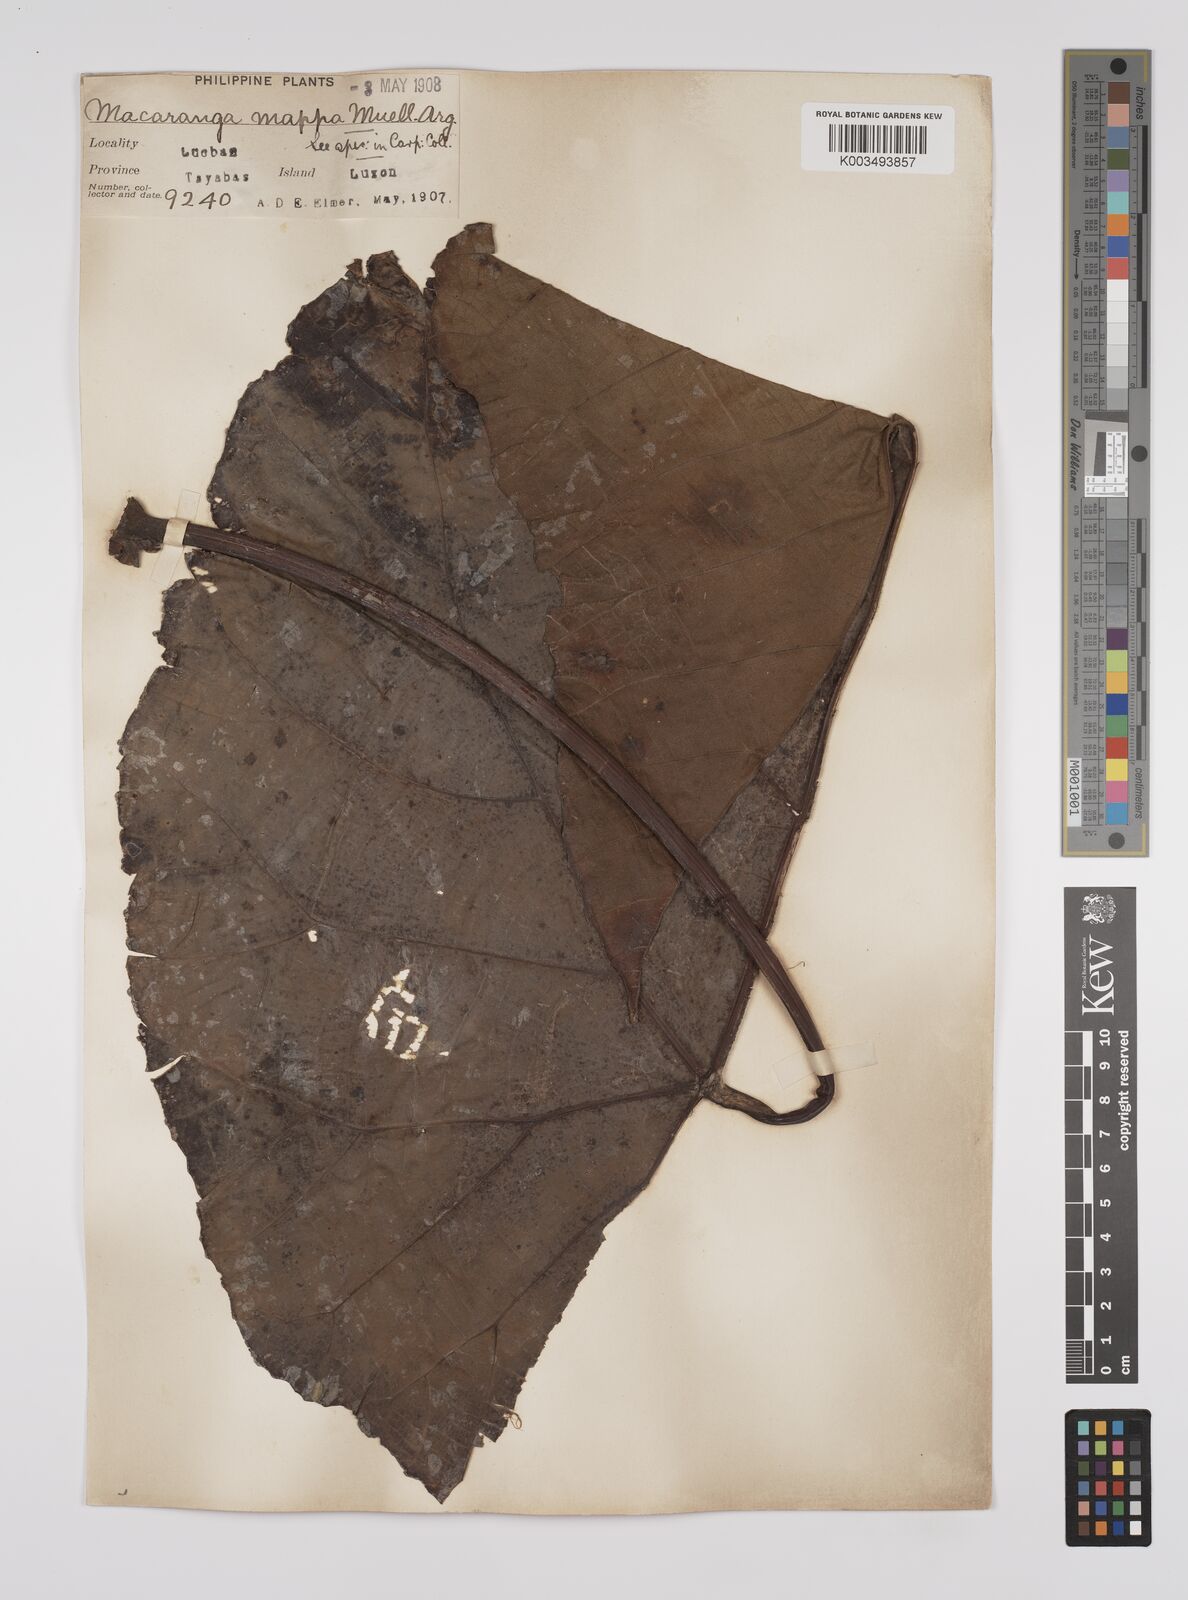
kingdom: Plantae
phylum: Tracheophyta
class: Magnoliopsida
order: Malpighiales
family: Euphorbiaceae
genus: Macaranga
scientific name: Macaranga grandifolia
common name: Coraltree
